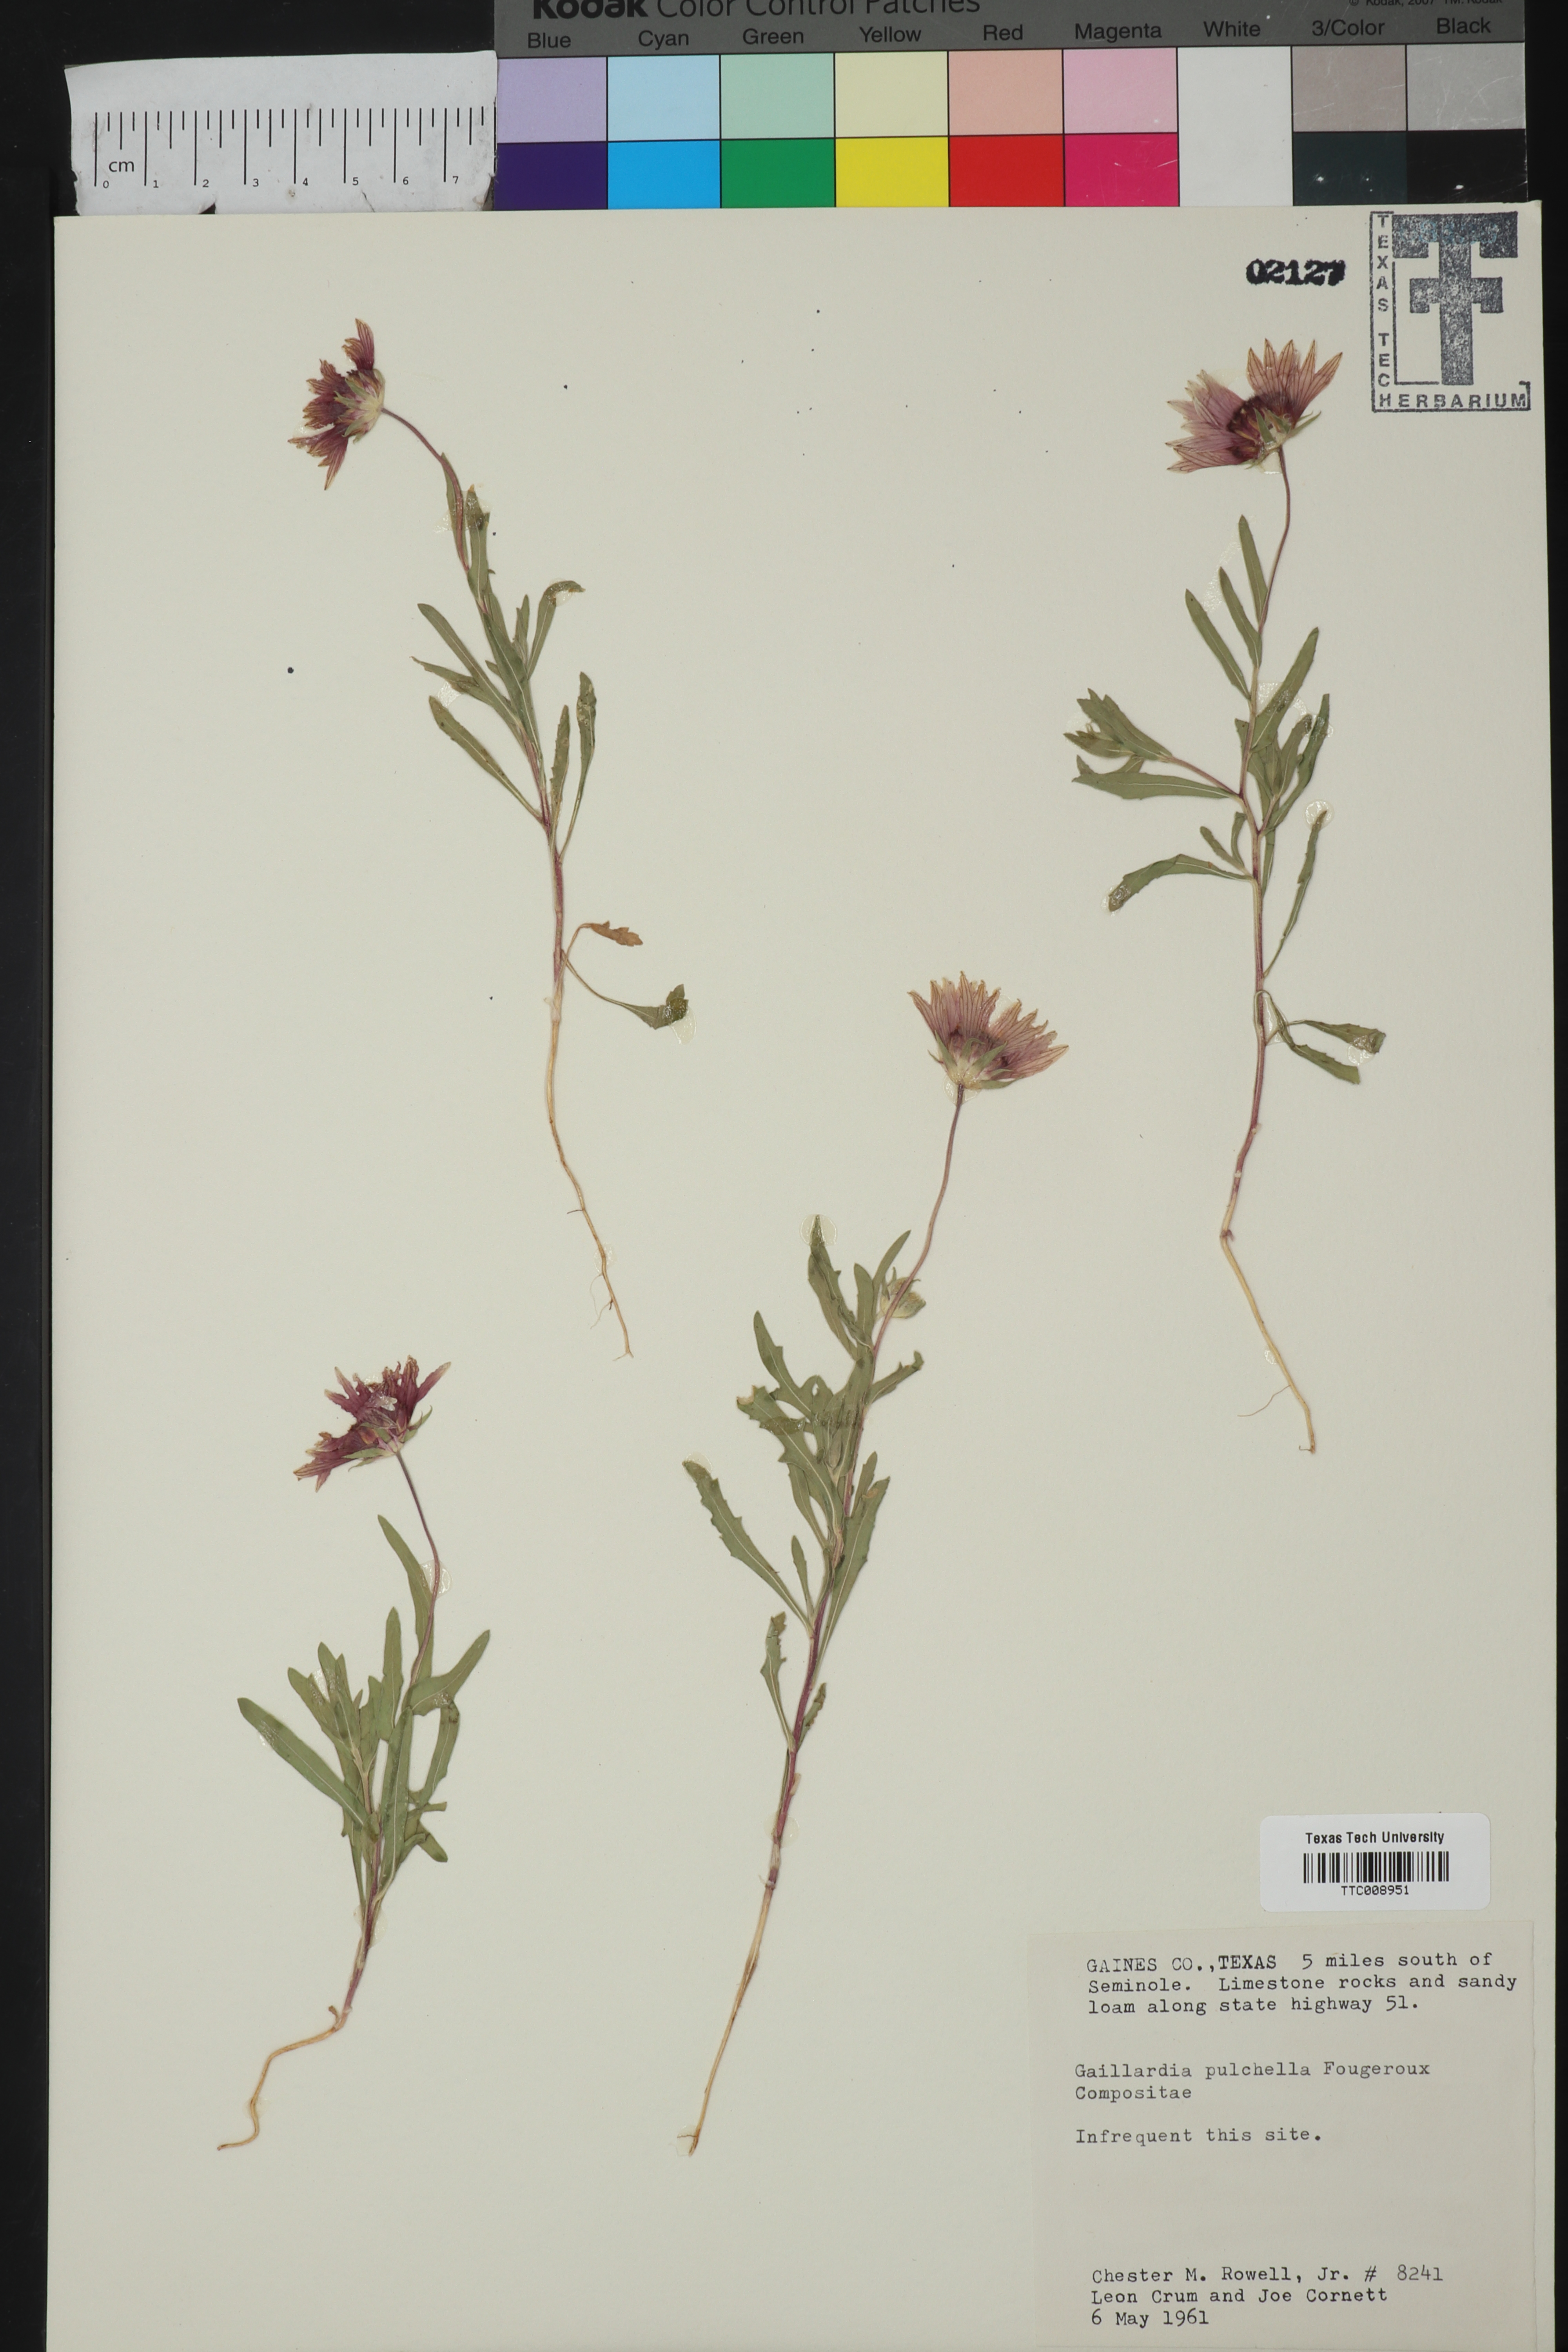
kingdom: Plantae
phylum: Tracheophyta
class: Magnoliopsida
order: Asterales
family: Asteraceae
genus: Gaillardia
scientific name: Gaillardia pulchella
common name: Firewheel
